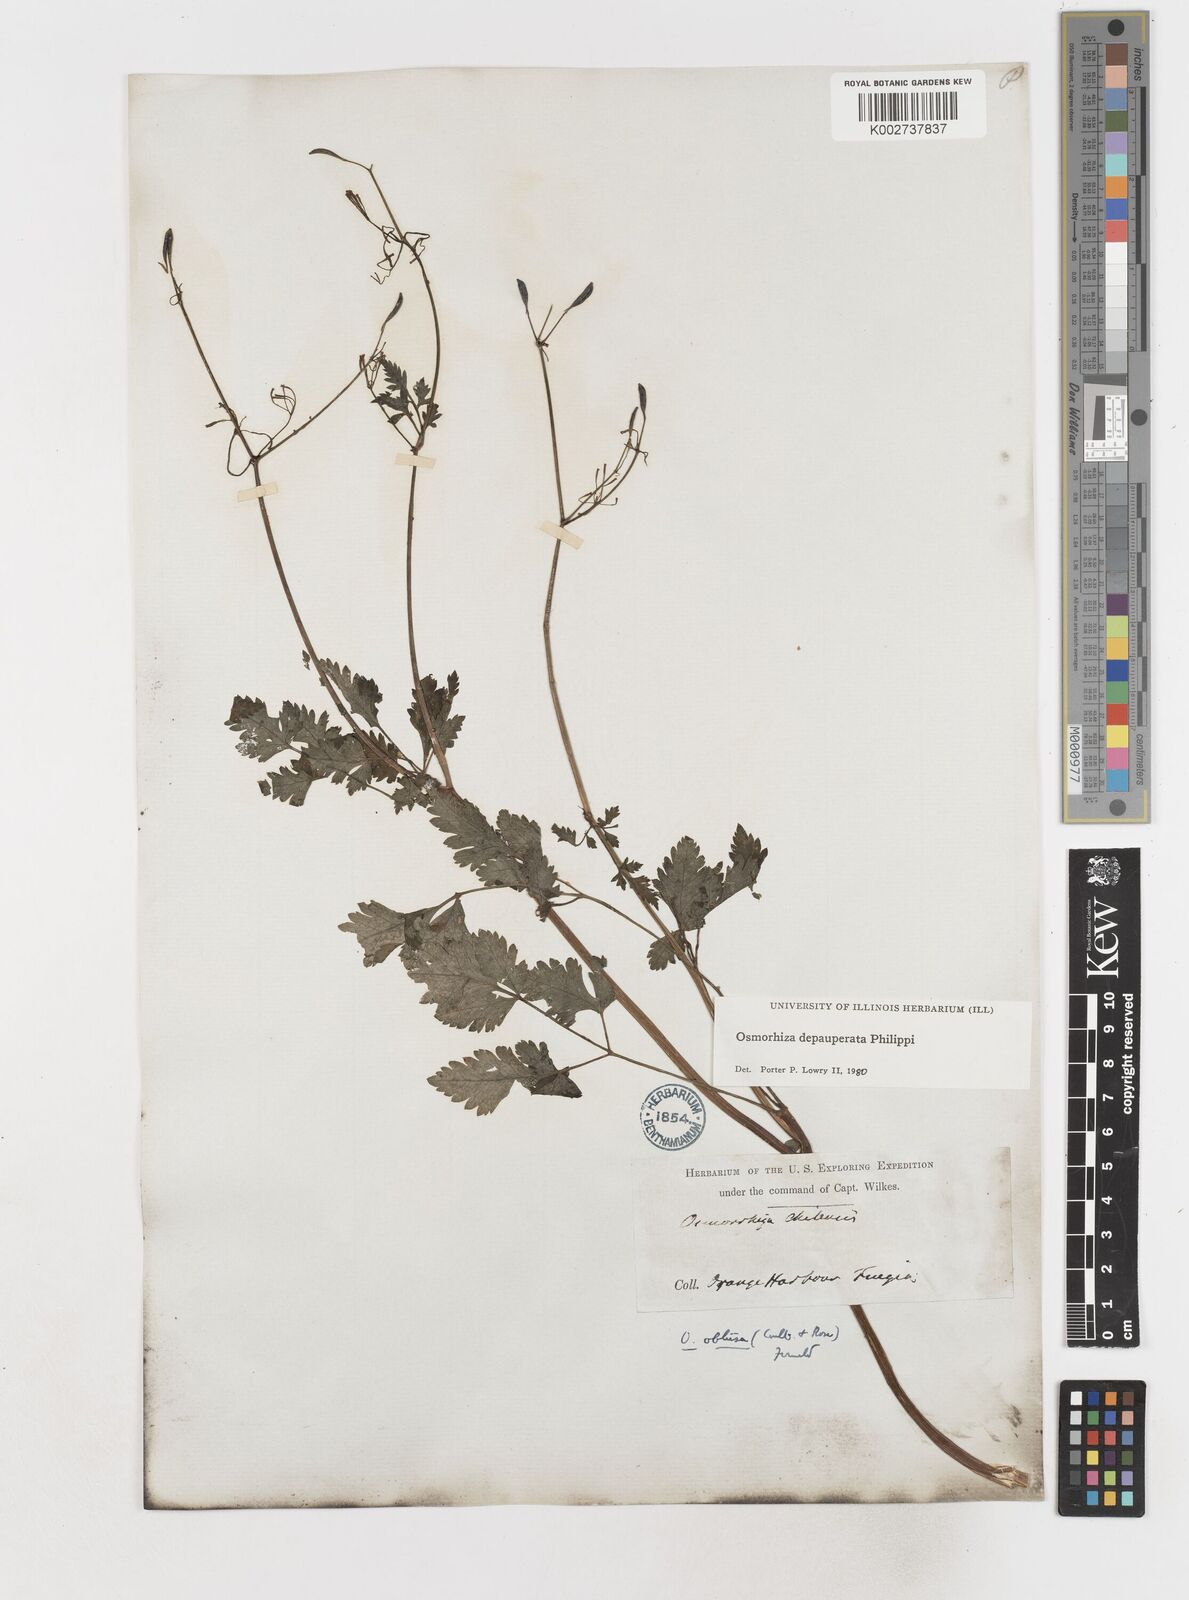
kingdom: Plantae
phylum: Tracheophyta
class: Magnoliopsida
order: Apiales
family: Apiaceae
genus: Osmorhiza
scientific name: Osmorhiza depauperata
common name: Blunt sweet cicely
